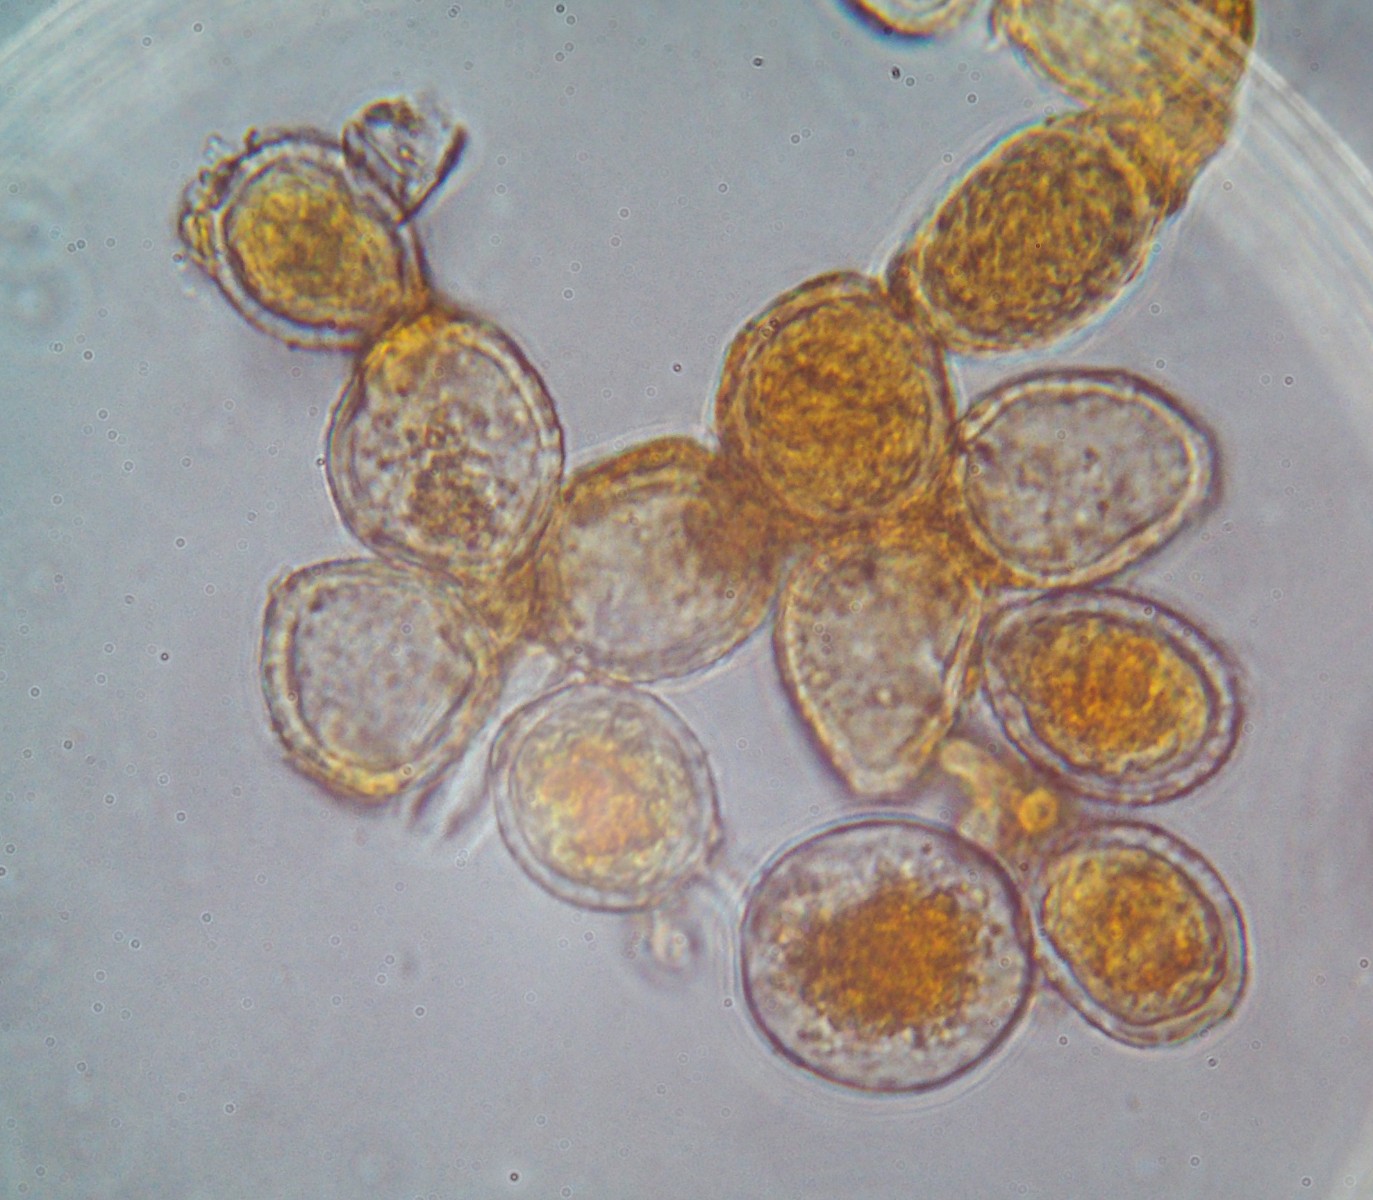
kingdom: Fungi
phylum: Basidiomycota
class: Pucciniomycetes
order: Pucciniales
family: Pucciniaceae
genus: Puccinia
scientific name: Puccinia
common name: tvecellerust
